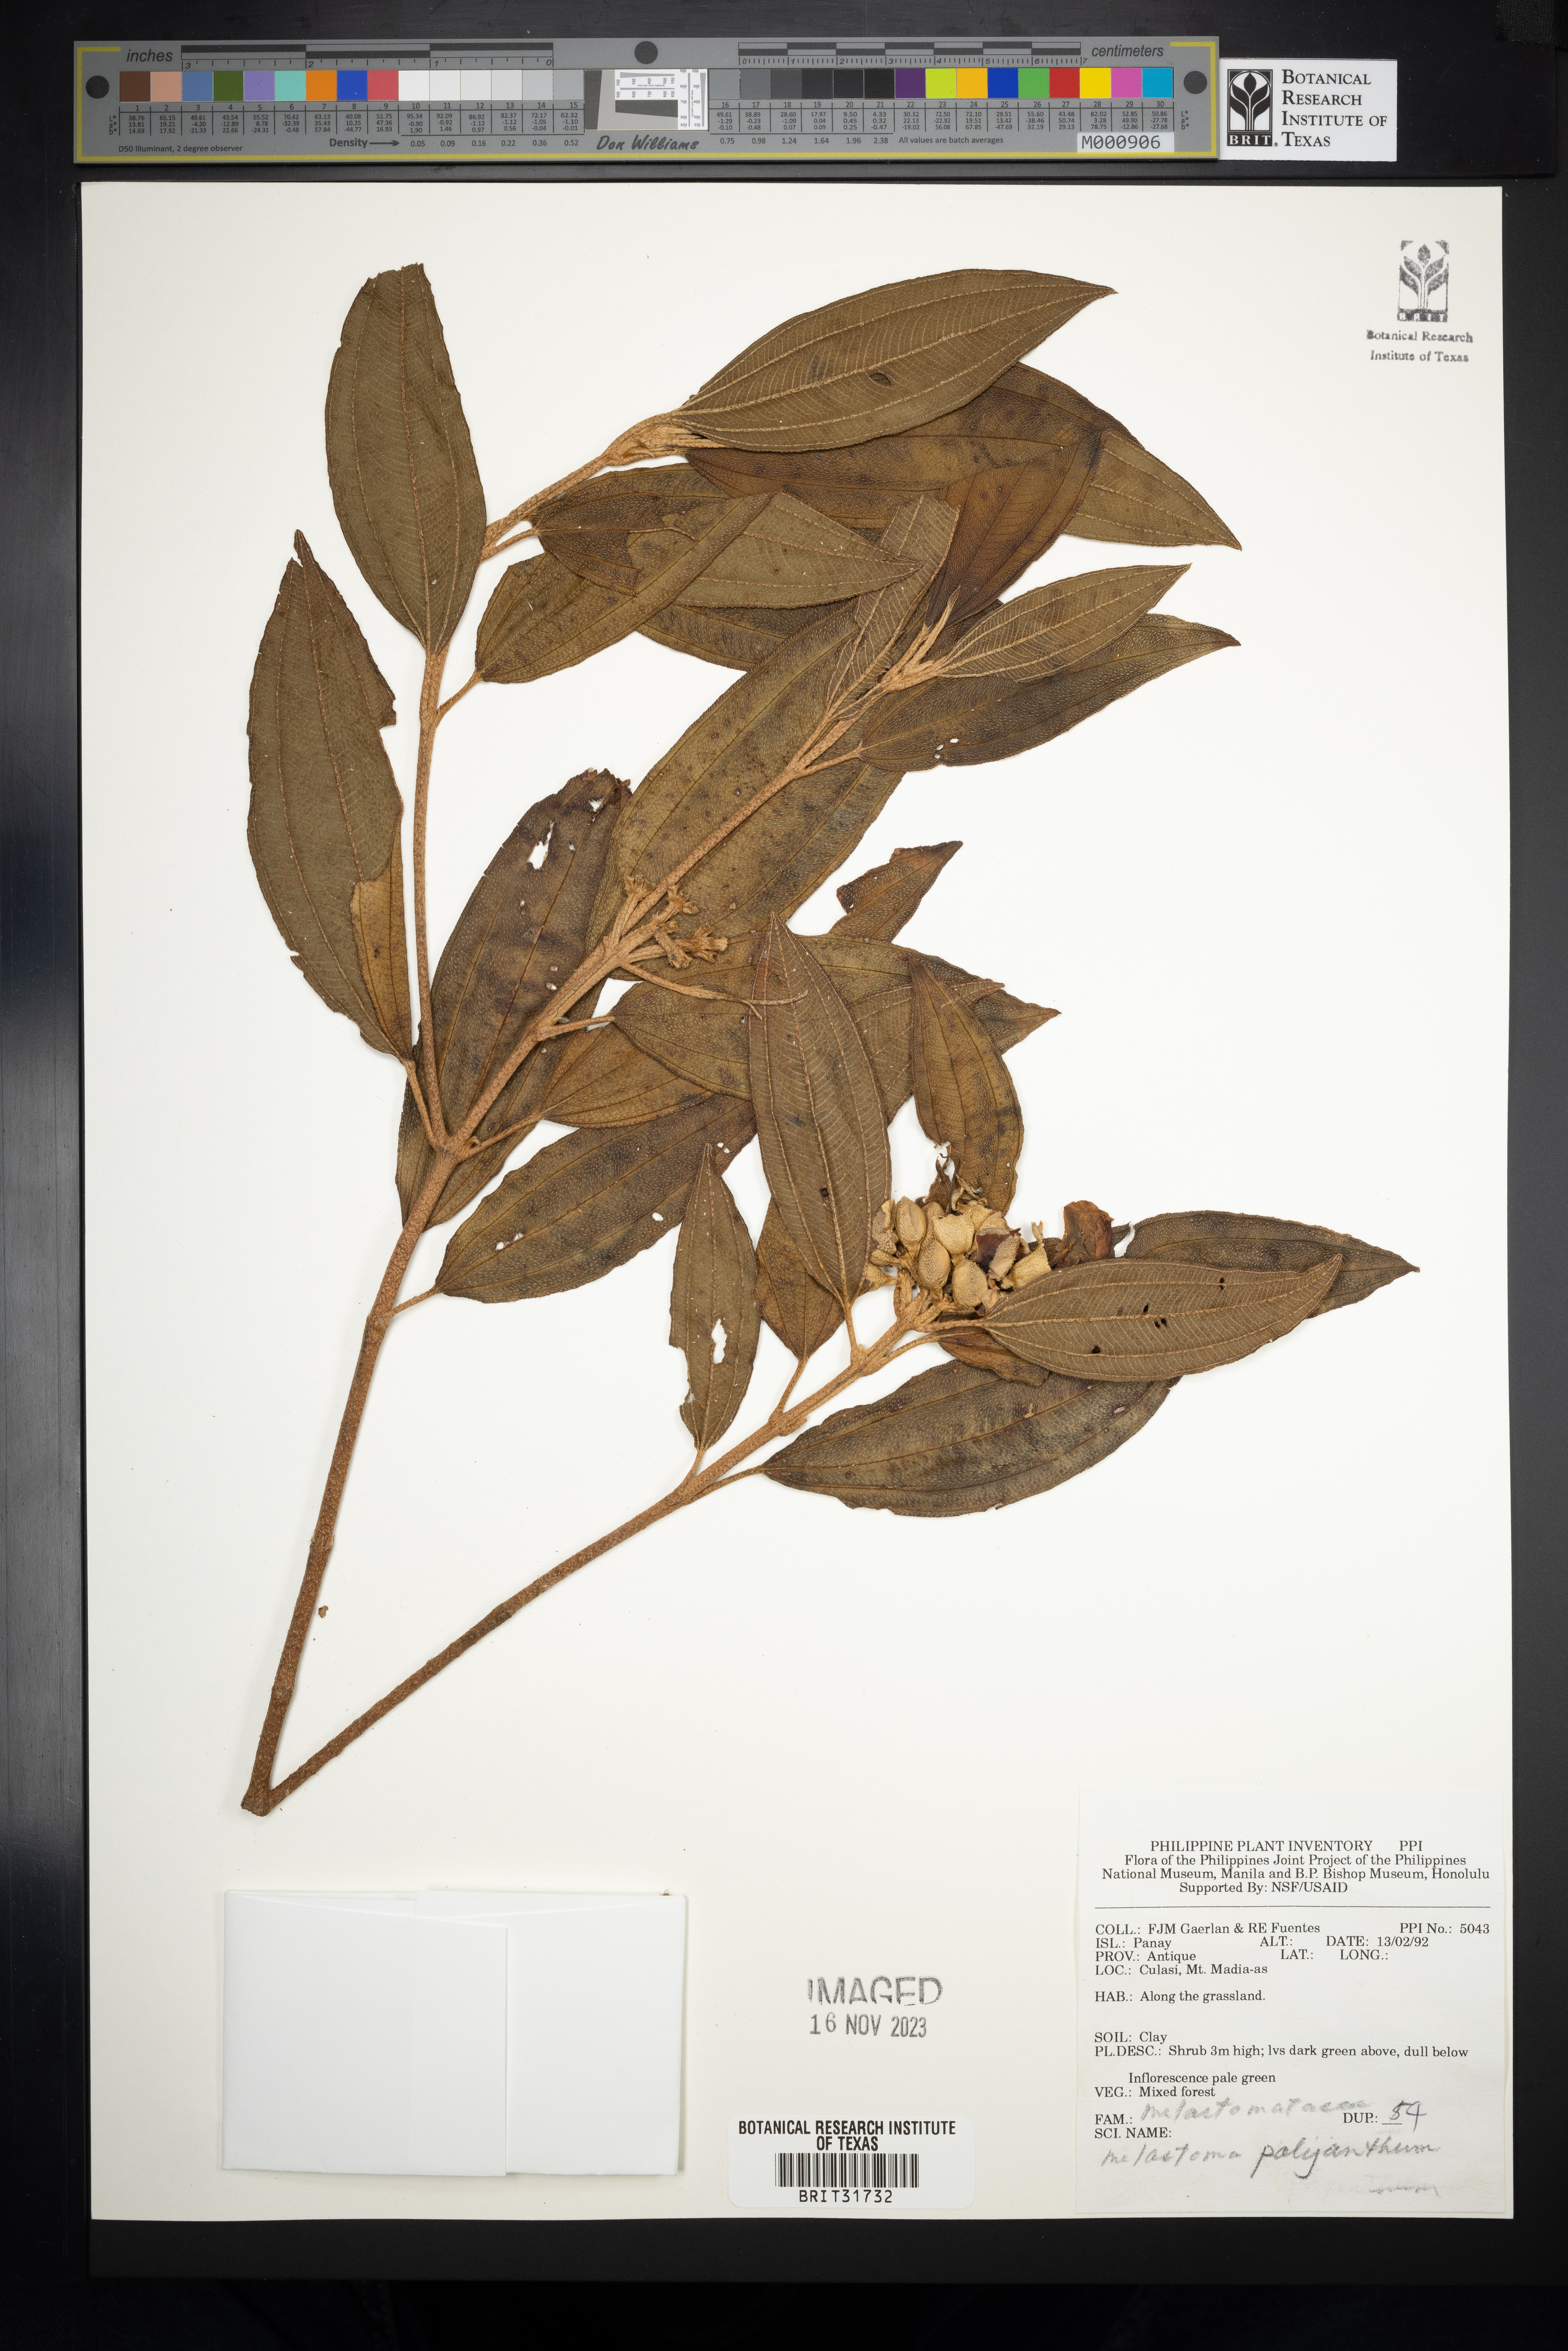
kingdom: Plantae
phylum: Tracheophyta
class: Magnoliopsida
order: Myrtales
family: Melastomataceae
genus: Melastoma
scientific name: Melastoma malabathricum
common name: Indian-rhododendron
